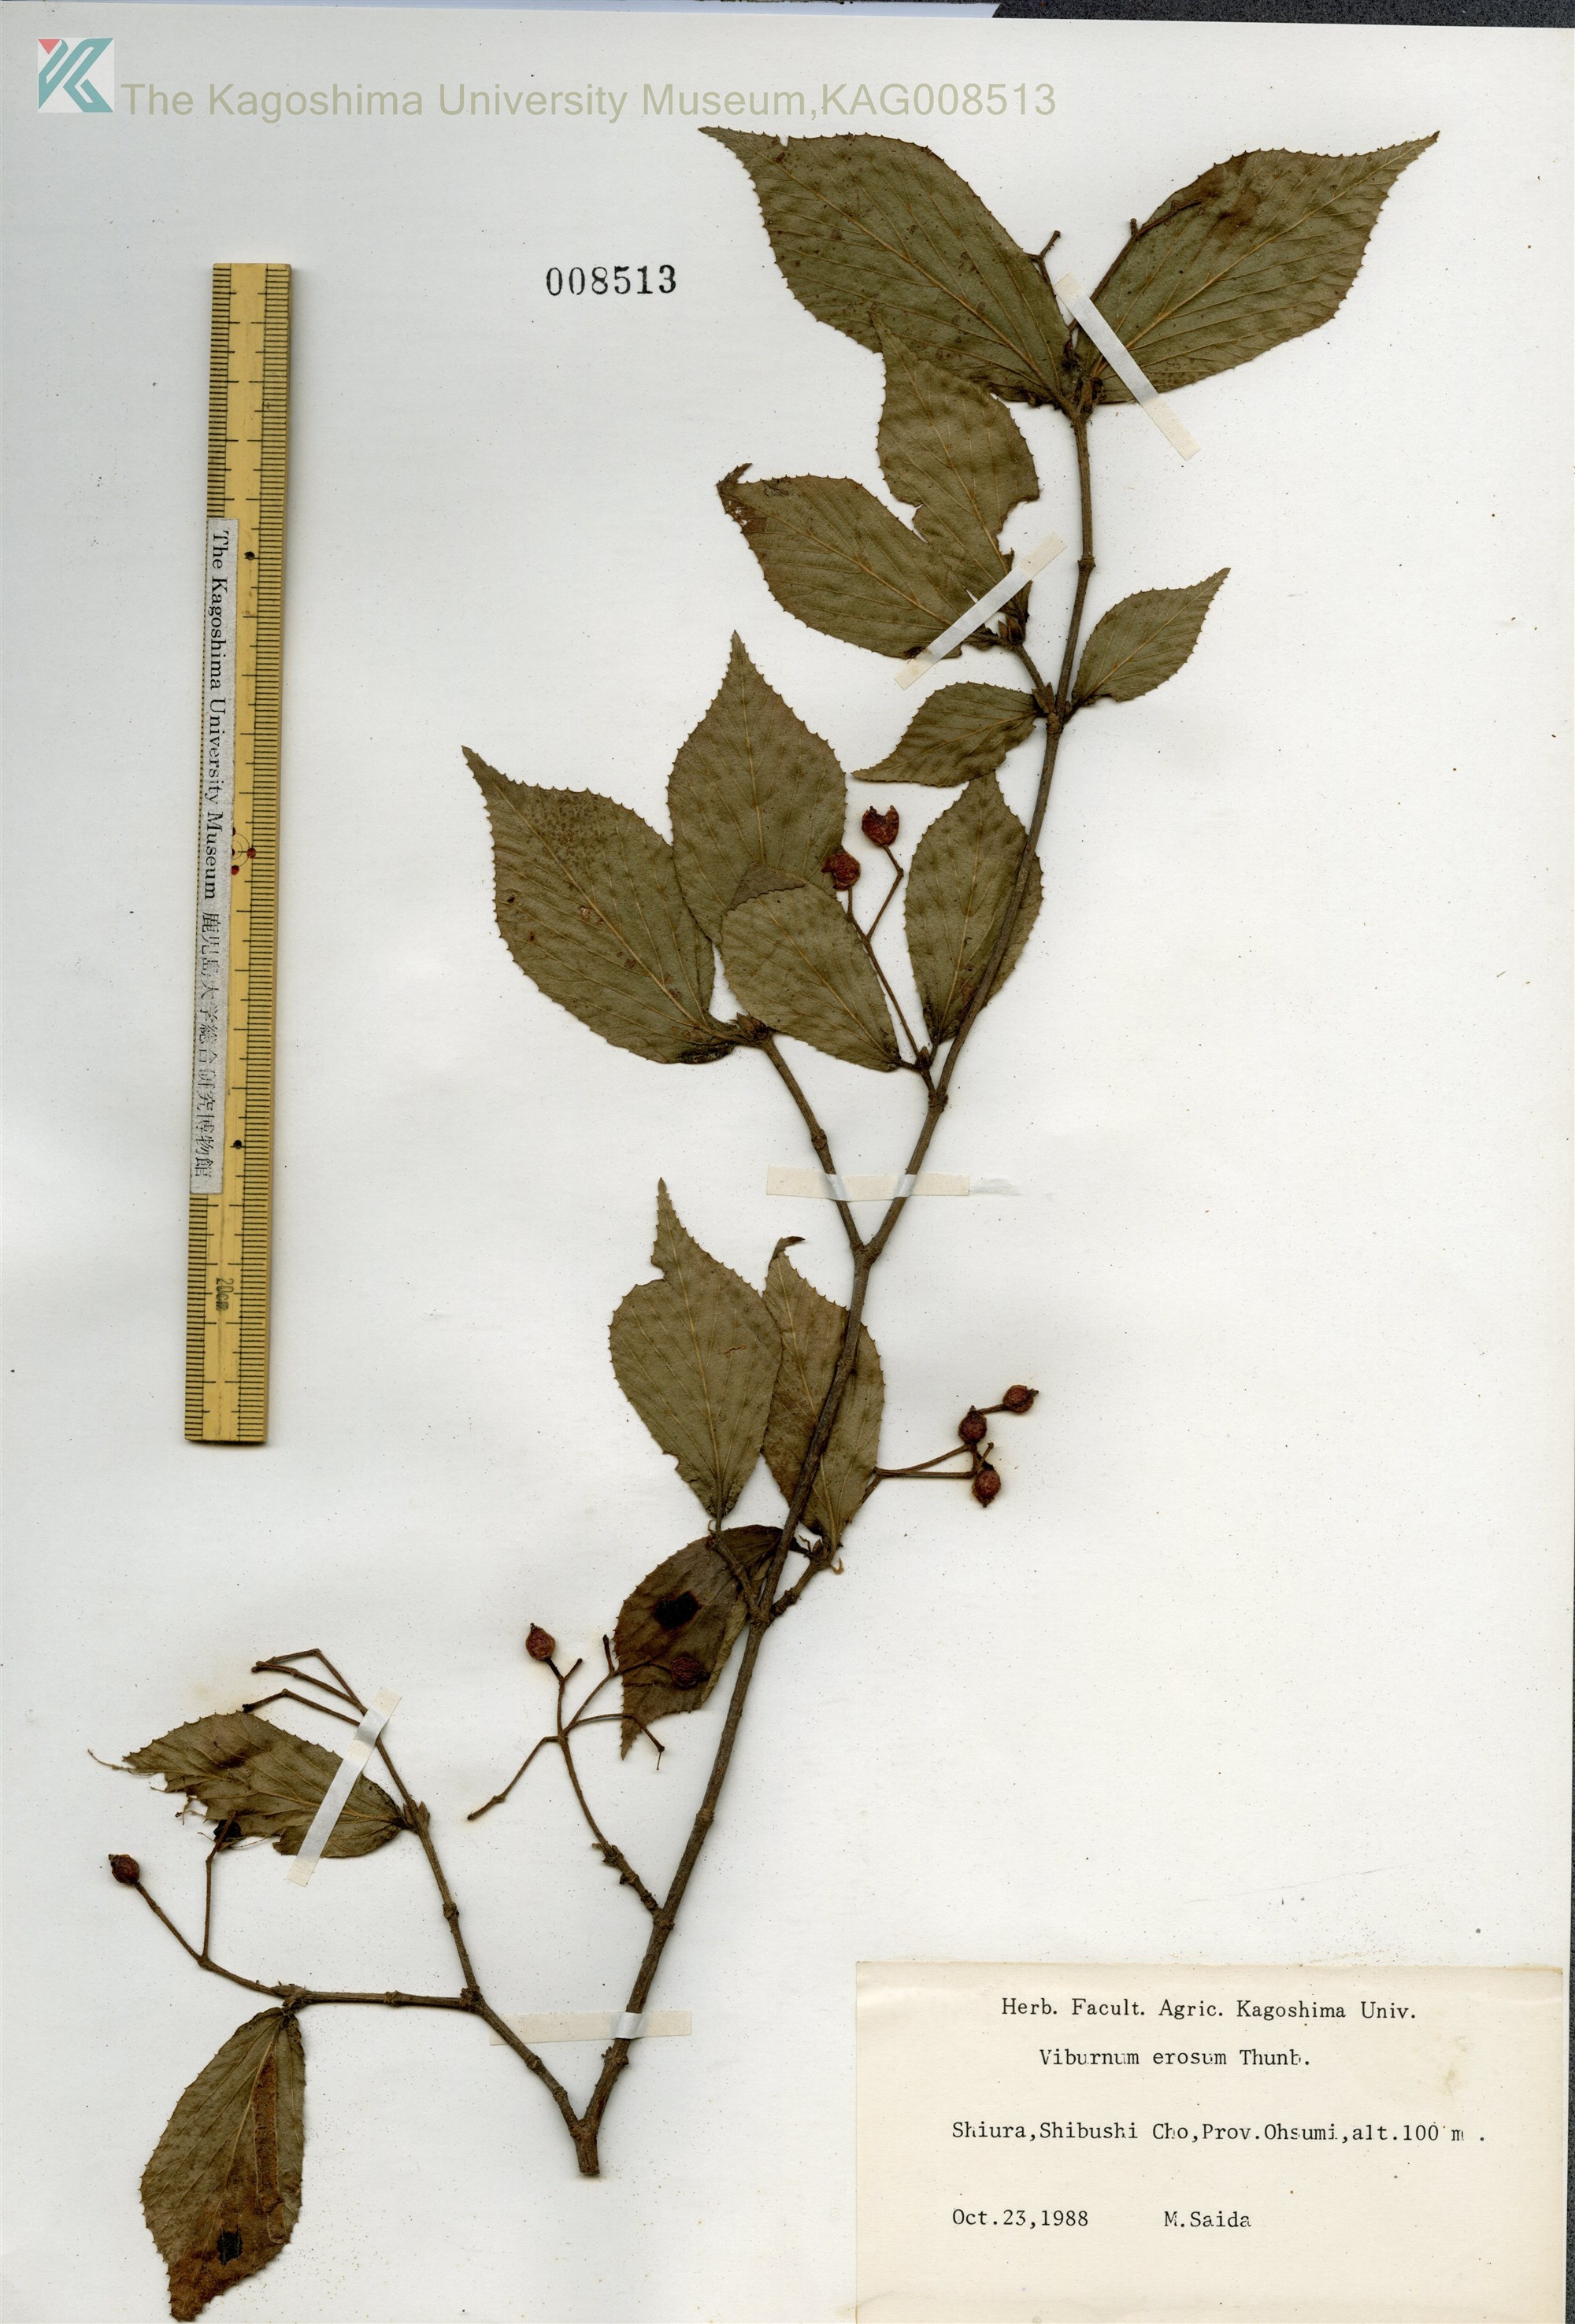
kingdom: Plantae
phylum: Tracheophyta
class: Magnoliopsida
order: Dipsacales
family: Viburnaceae
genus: Viburnum
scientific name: Viburnum erosum
